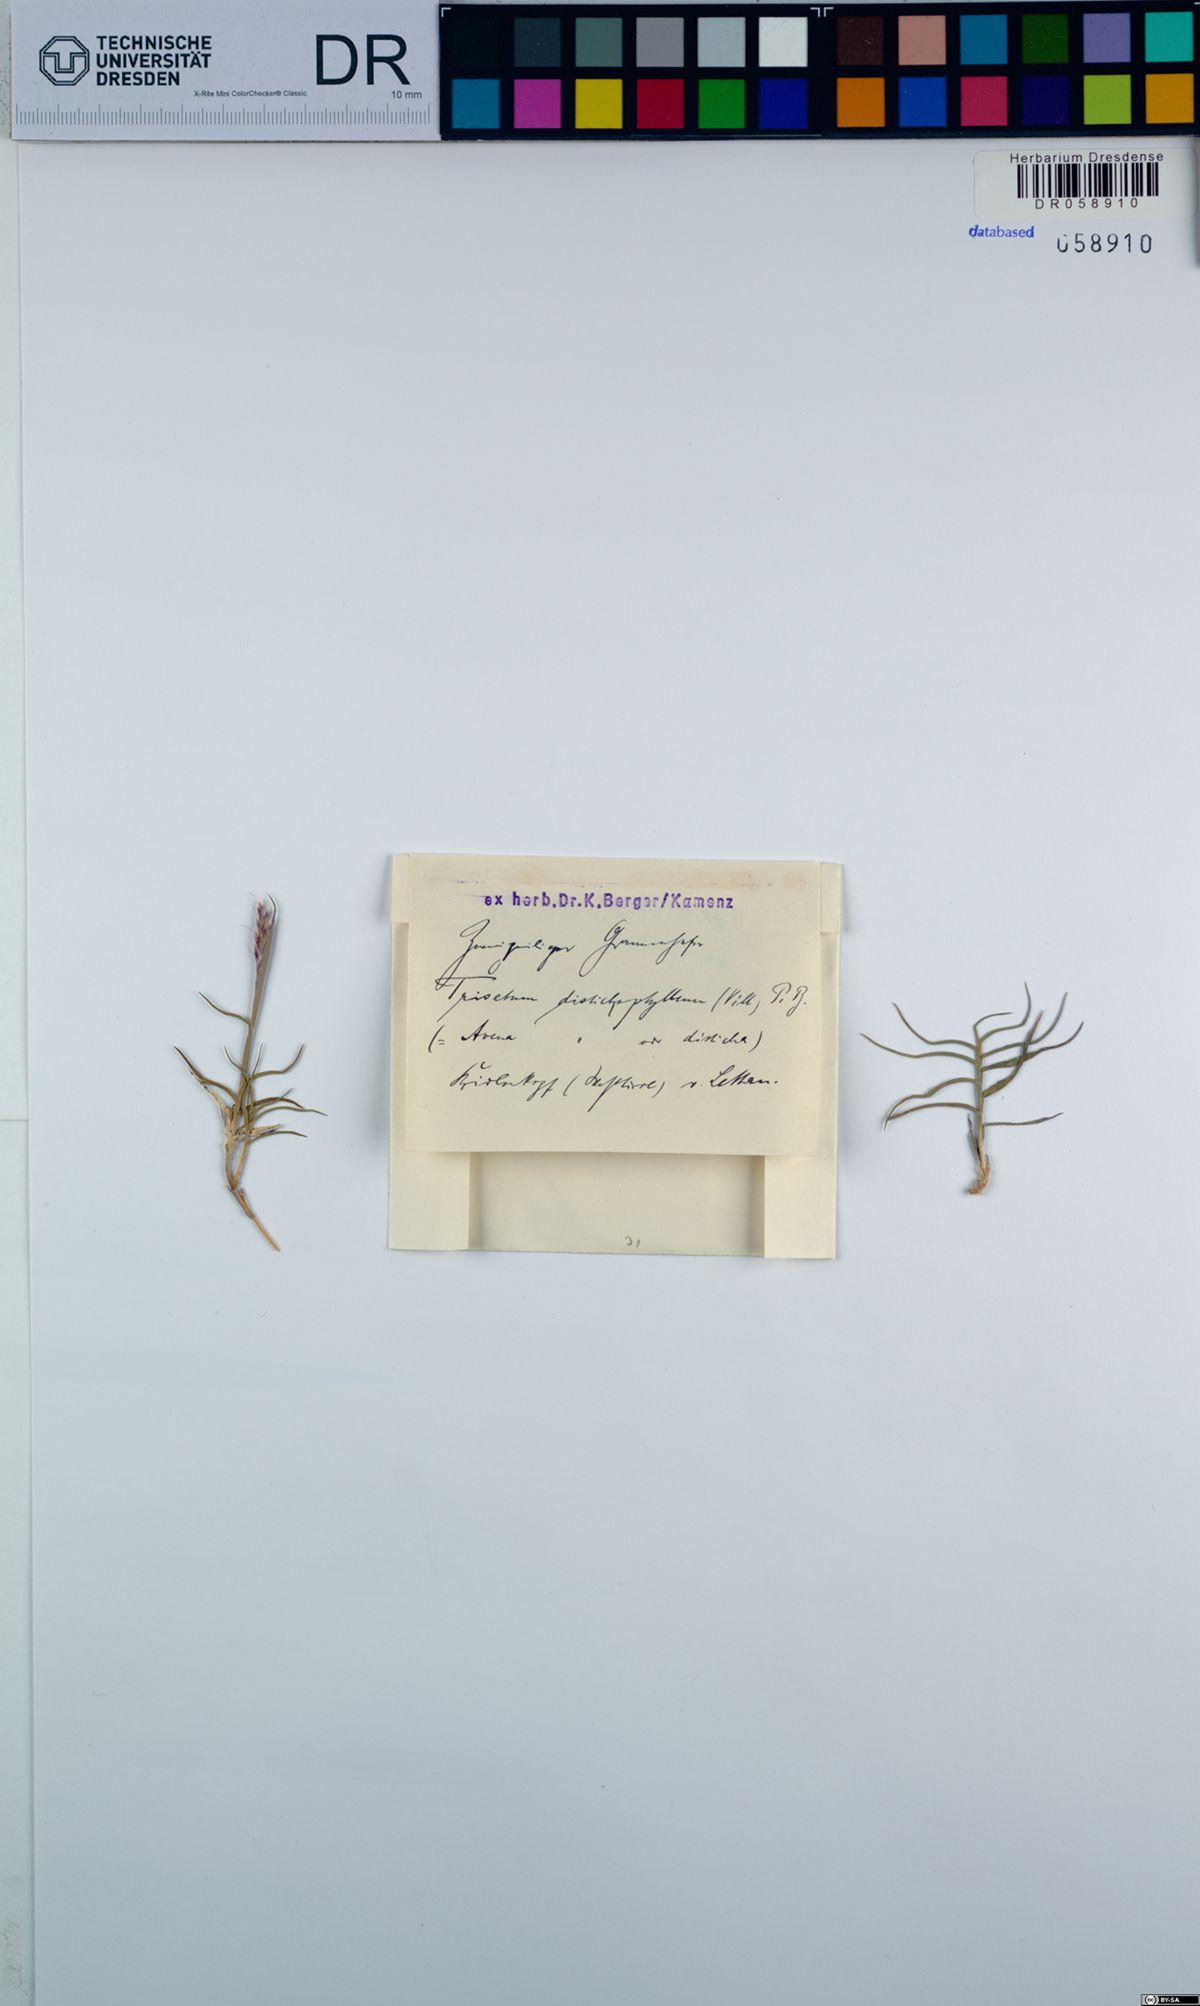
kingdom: Plantae
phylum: Tracheophyta
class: Liliopsida
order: Poales
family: Poaceae
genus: Acrospelion
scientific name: Acrospelion distichophyllum
